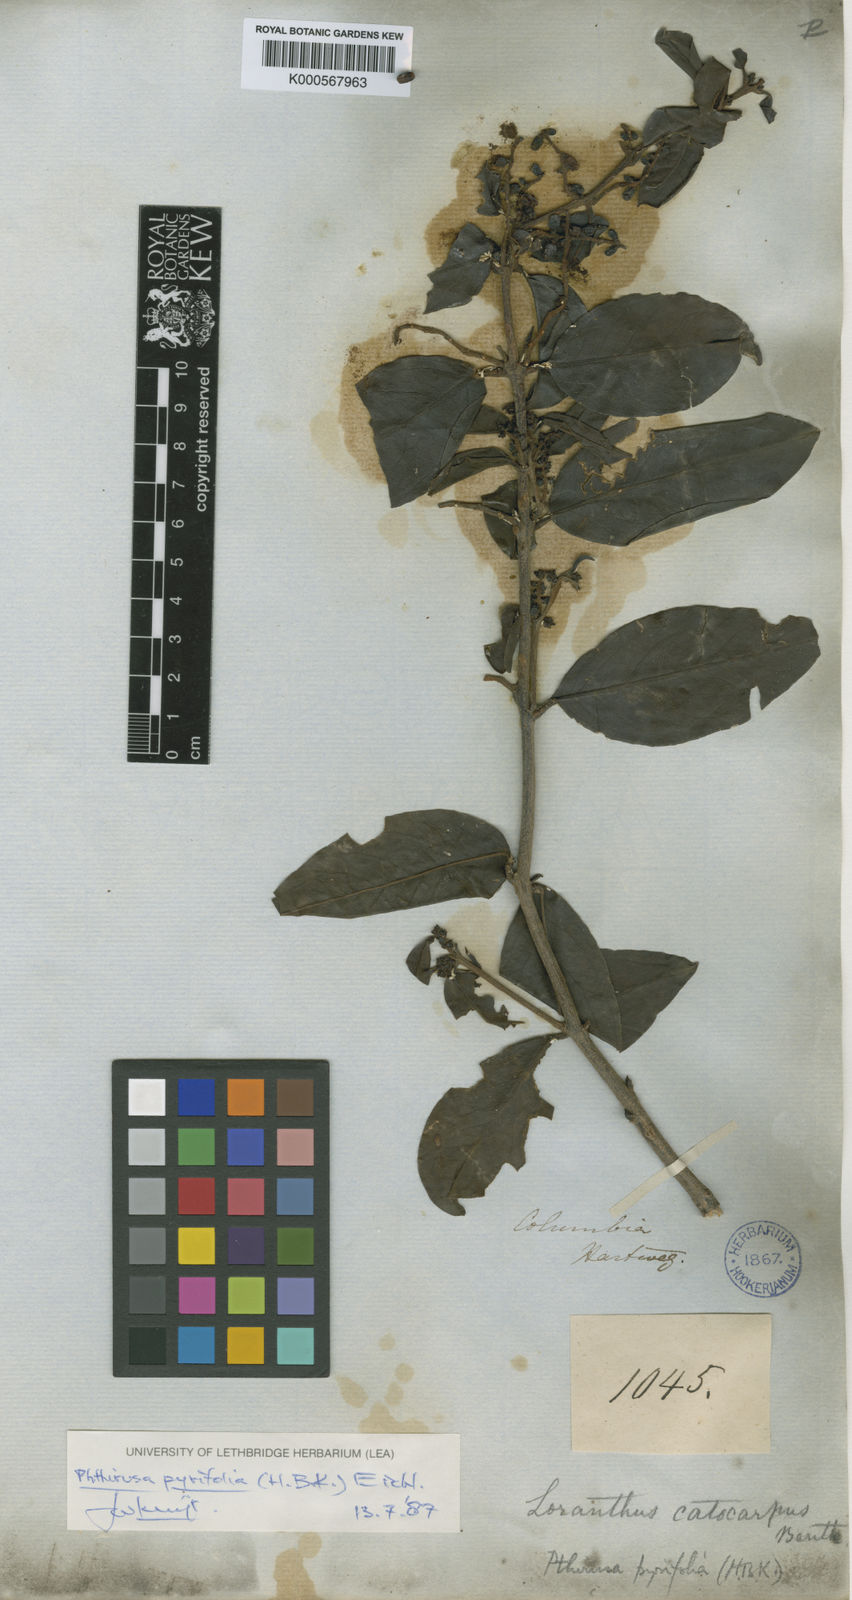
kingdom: Plantae
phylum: Tracheophyta
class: Magnoliopsida
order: Santalales
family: Loranthaceae
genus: Passovia
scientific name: Passovia pyrifolia
